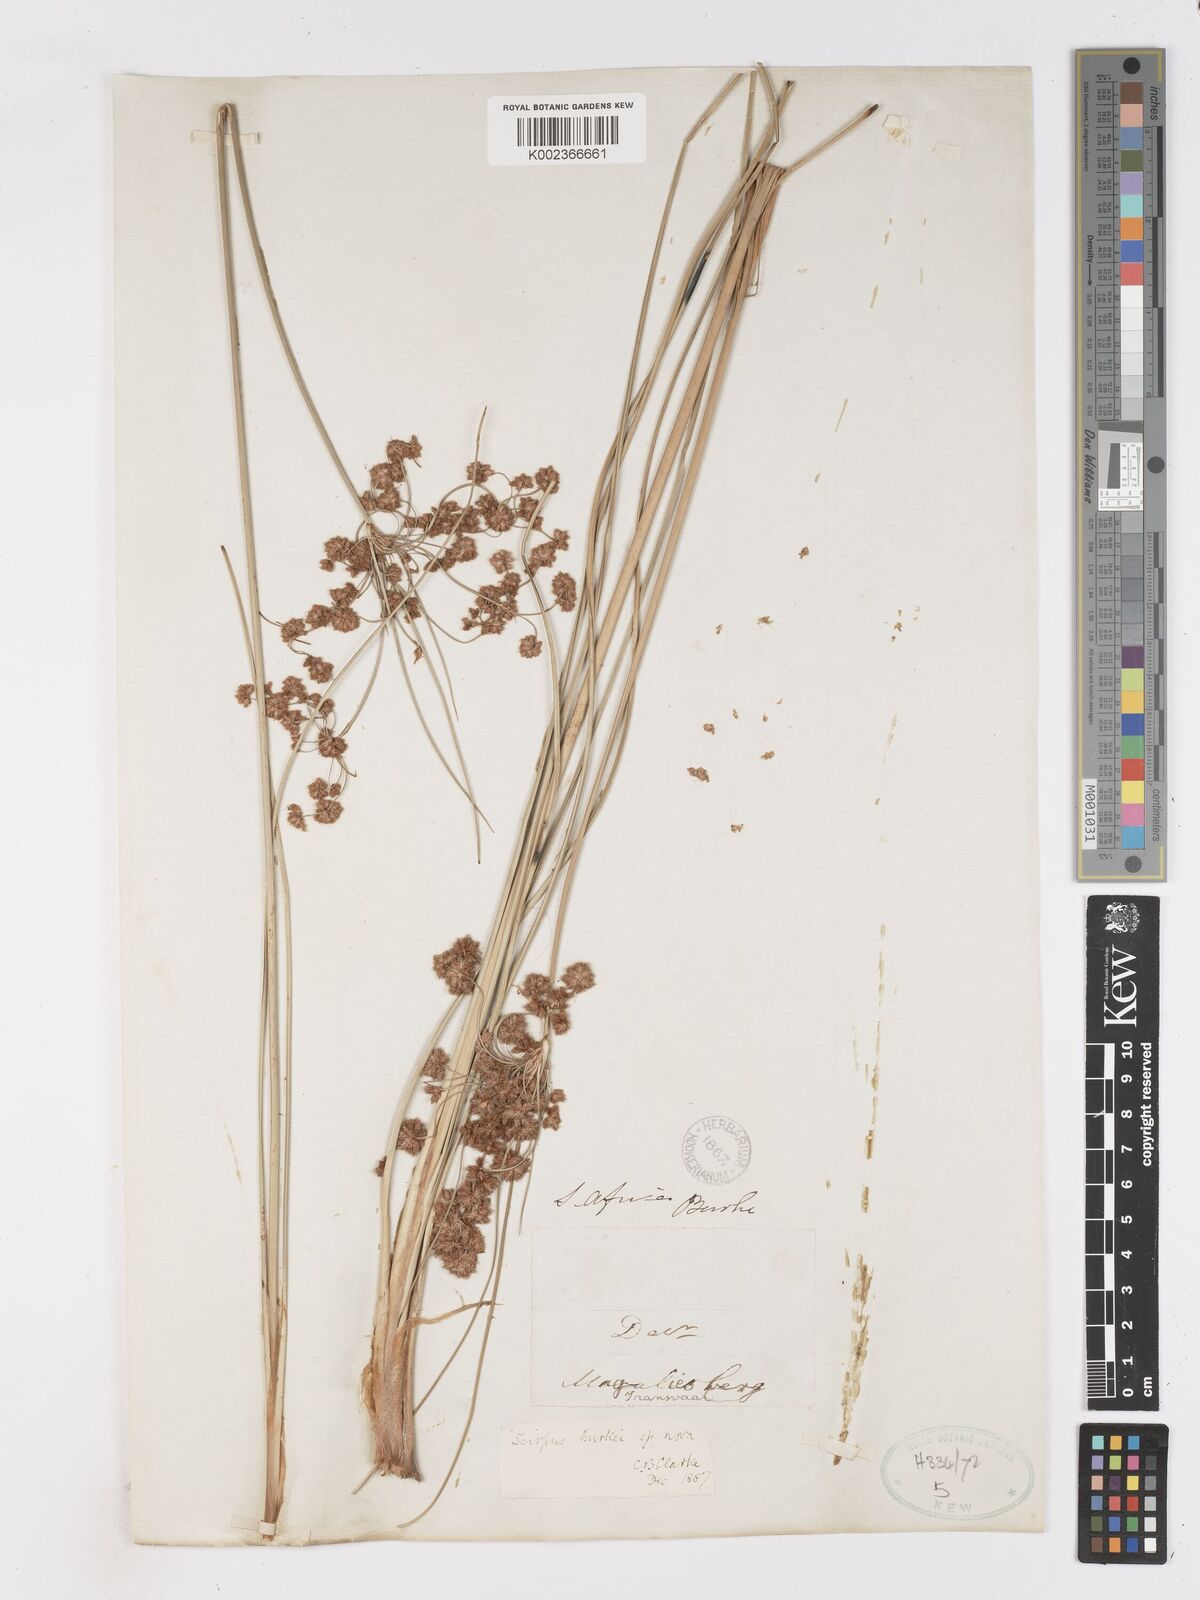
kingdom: Plantae
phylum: Tracheophyta
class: Liliopsida
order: Poales
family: Cyperaceae
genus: Scirpoides
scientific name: Scirpoides burkei
